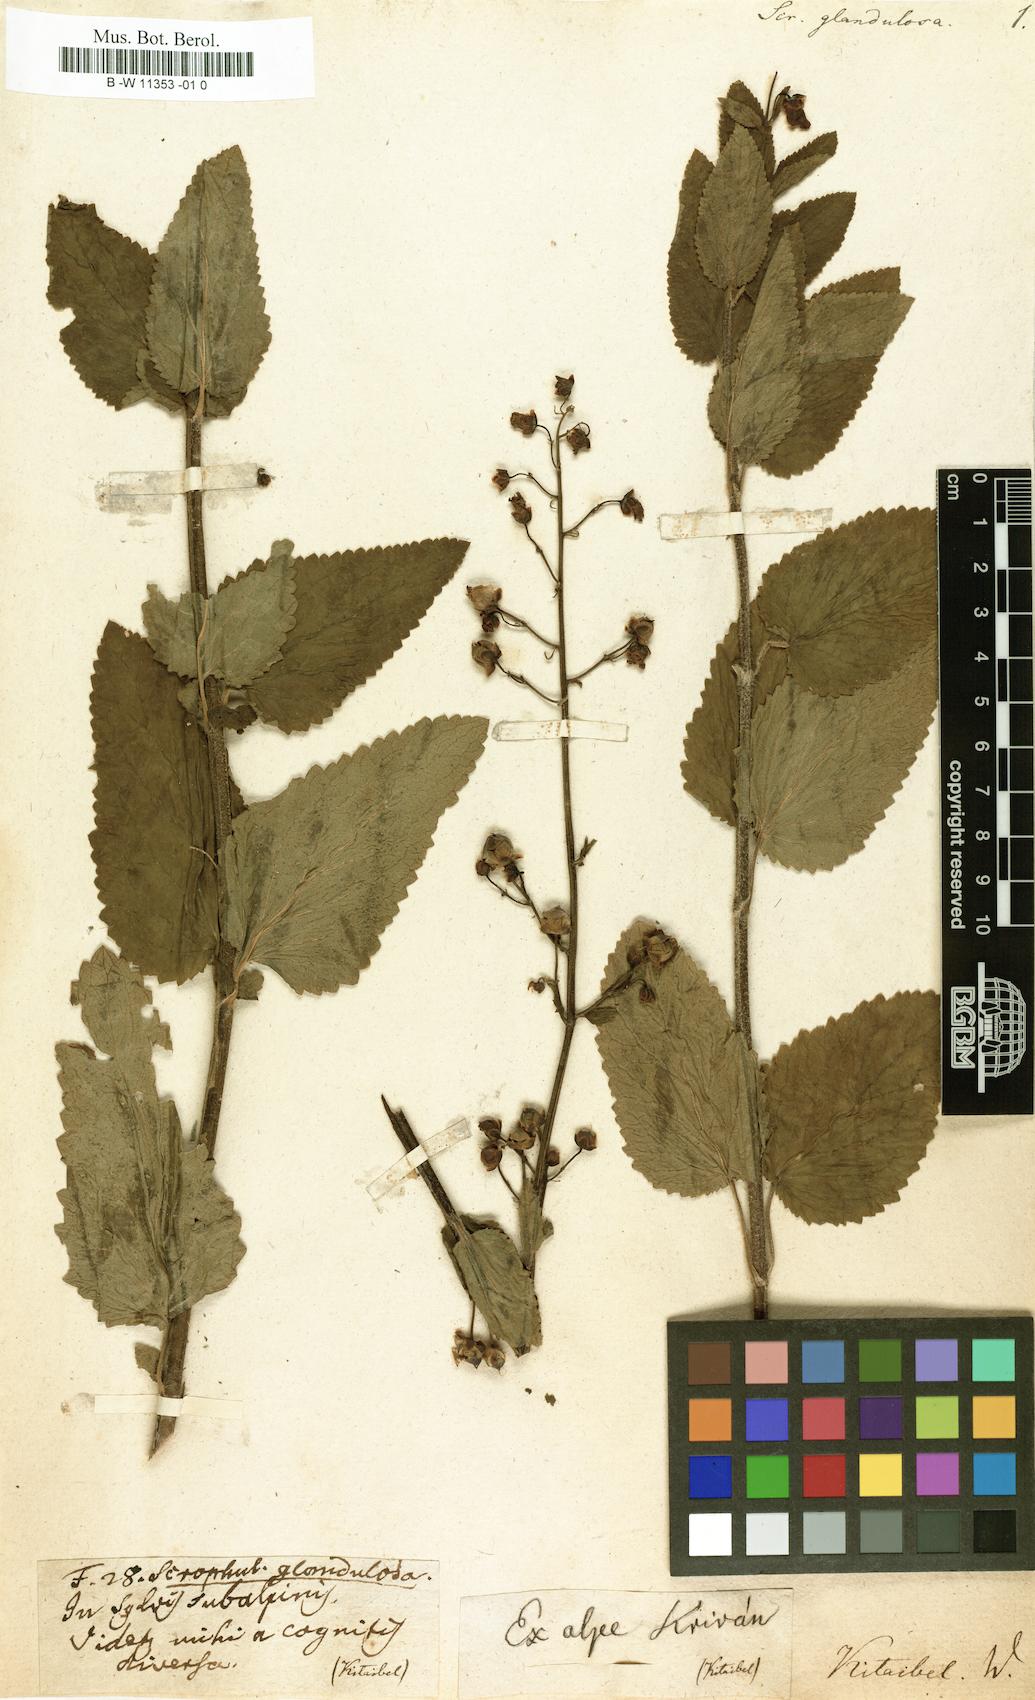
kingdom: Plantae
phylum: Tracheophyta
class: Magnoliopsida
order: Lamiales
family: Scrophulariaceae
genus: Scrophularia
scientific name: Scrophularia scopolii
